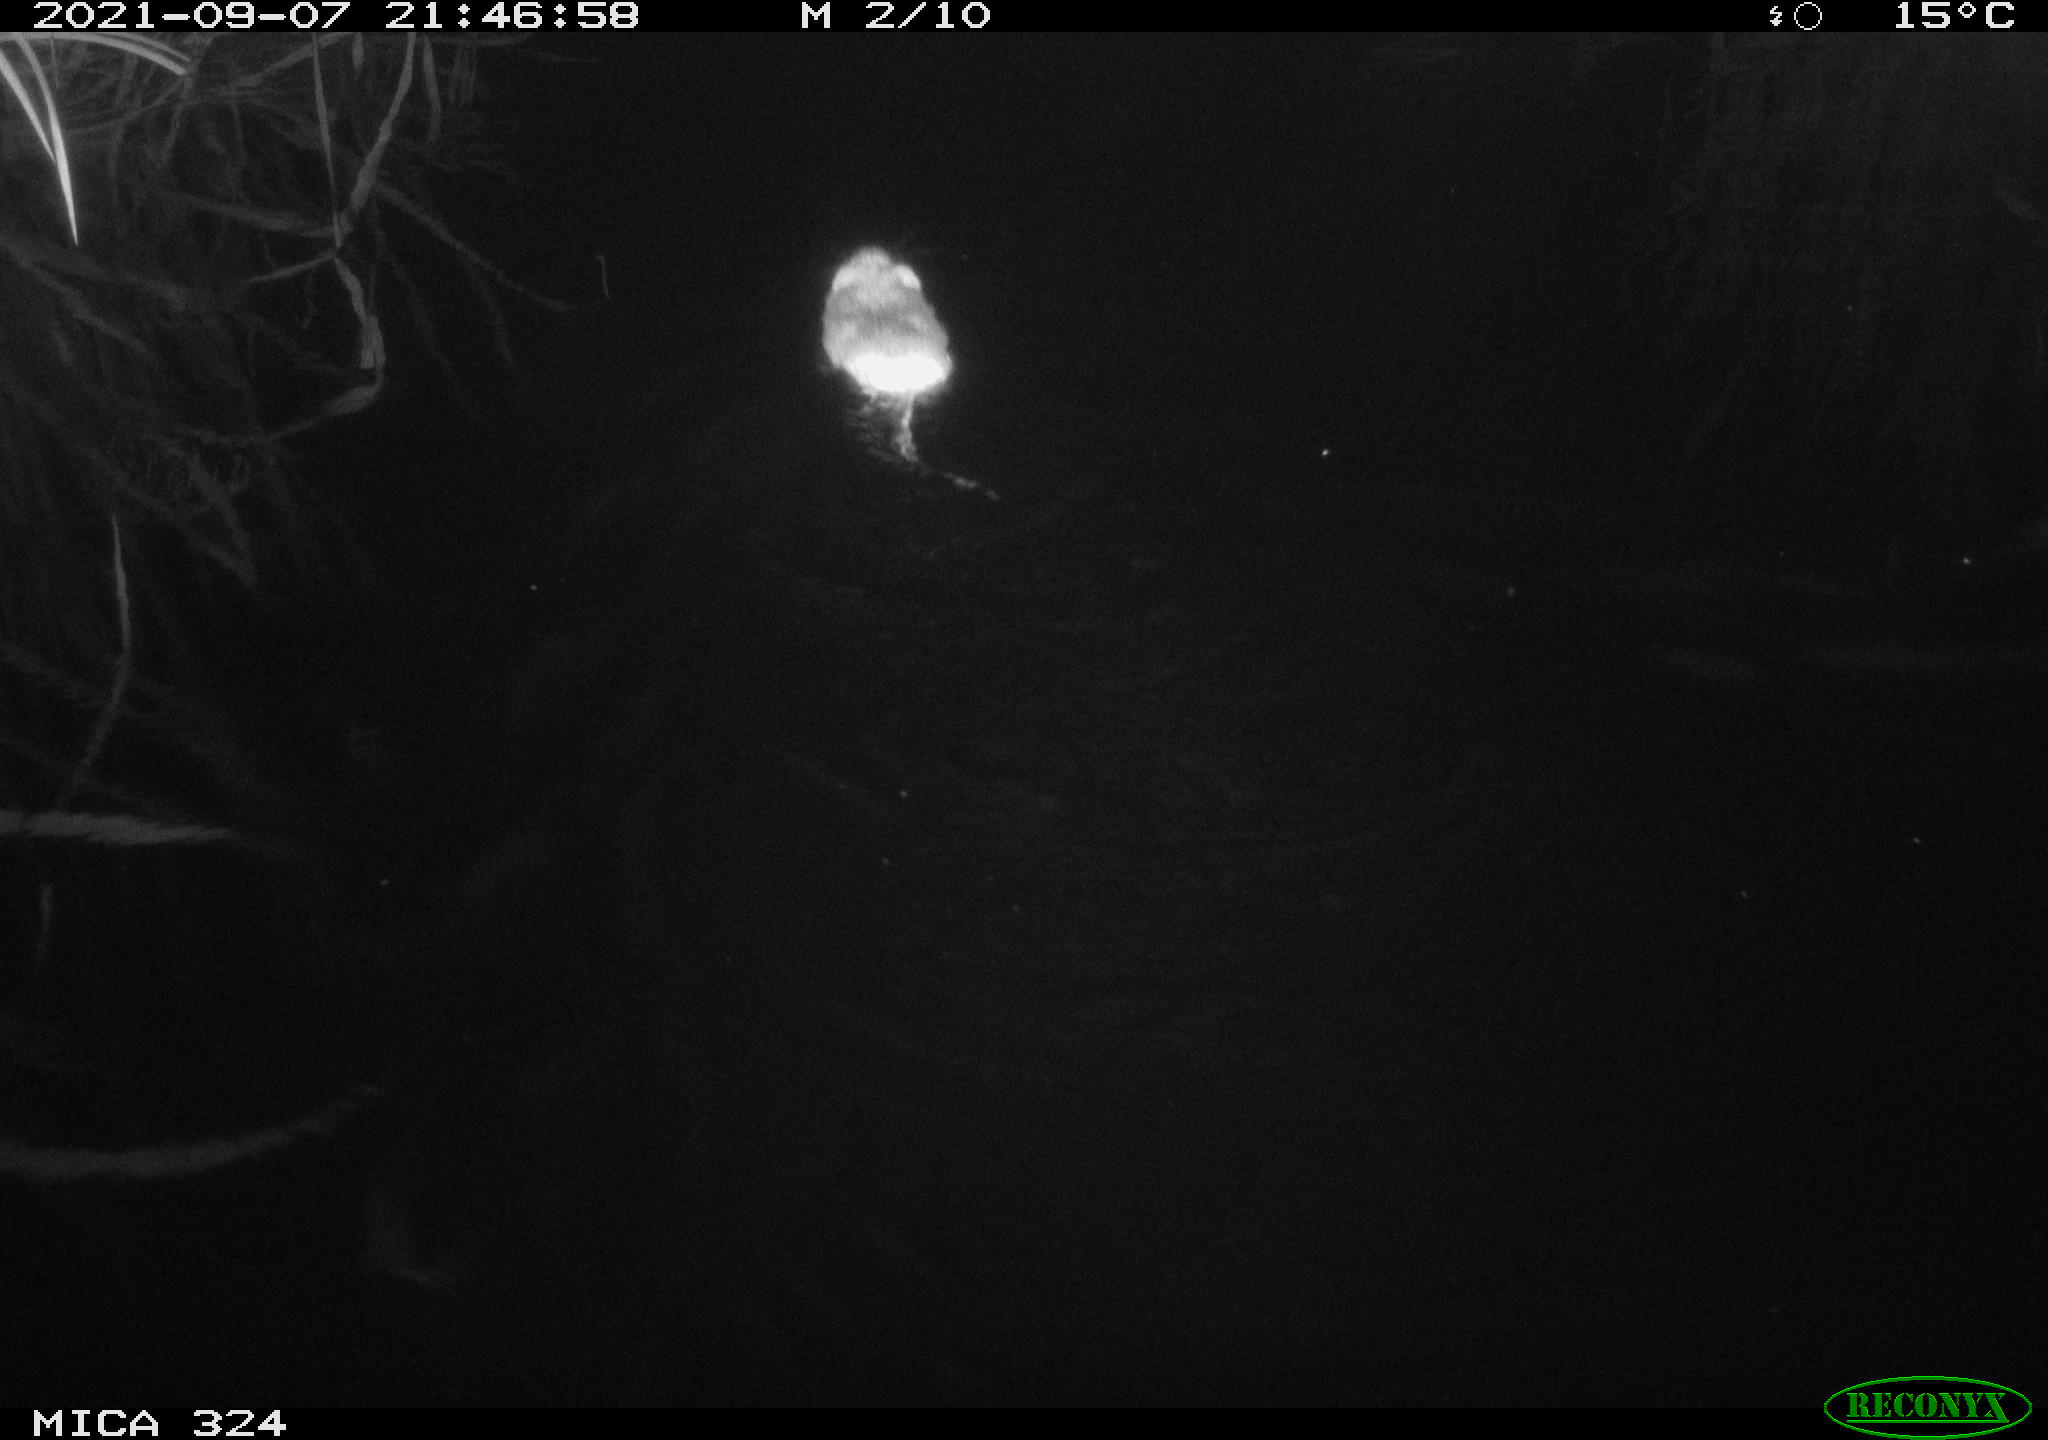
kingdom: Animalia
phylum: Chordata
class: Mammalia
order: Rodentia
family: Cricetidae
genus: Ondatra
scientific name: Ondatra zibethicus
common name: Muskrat
